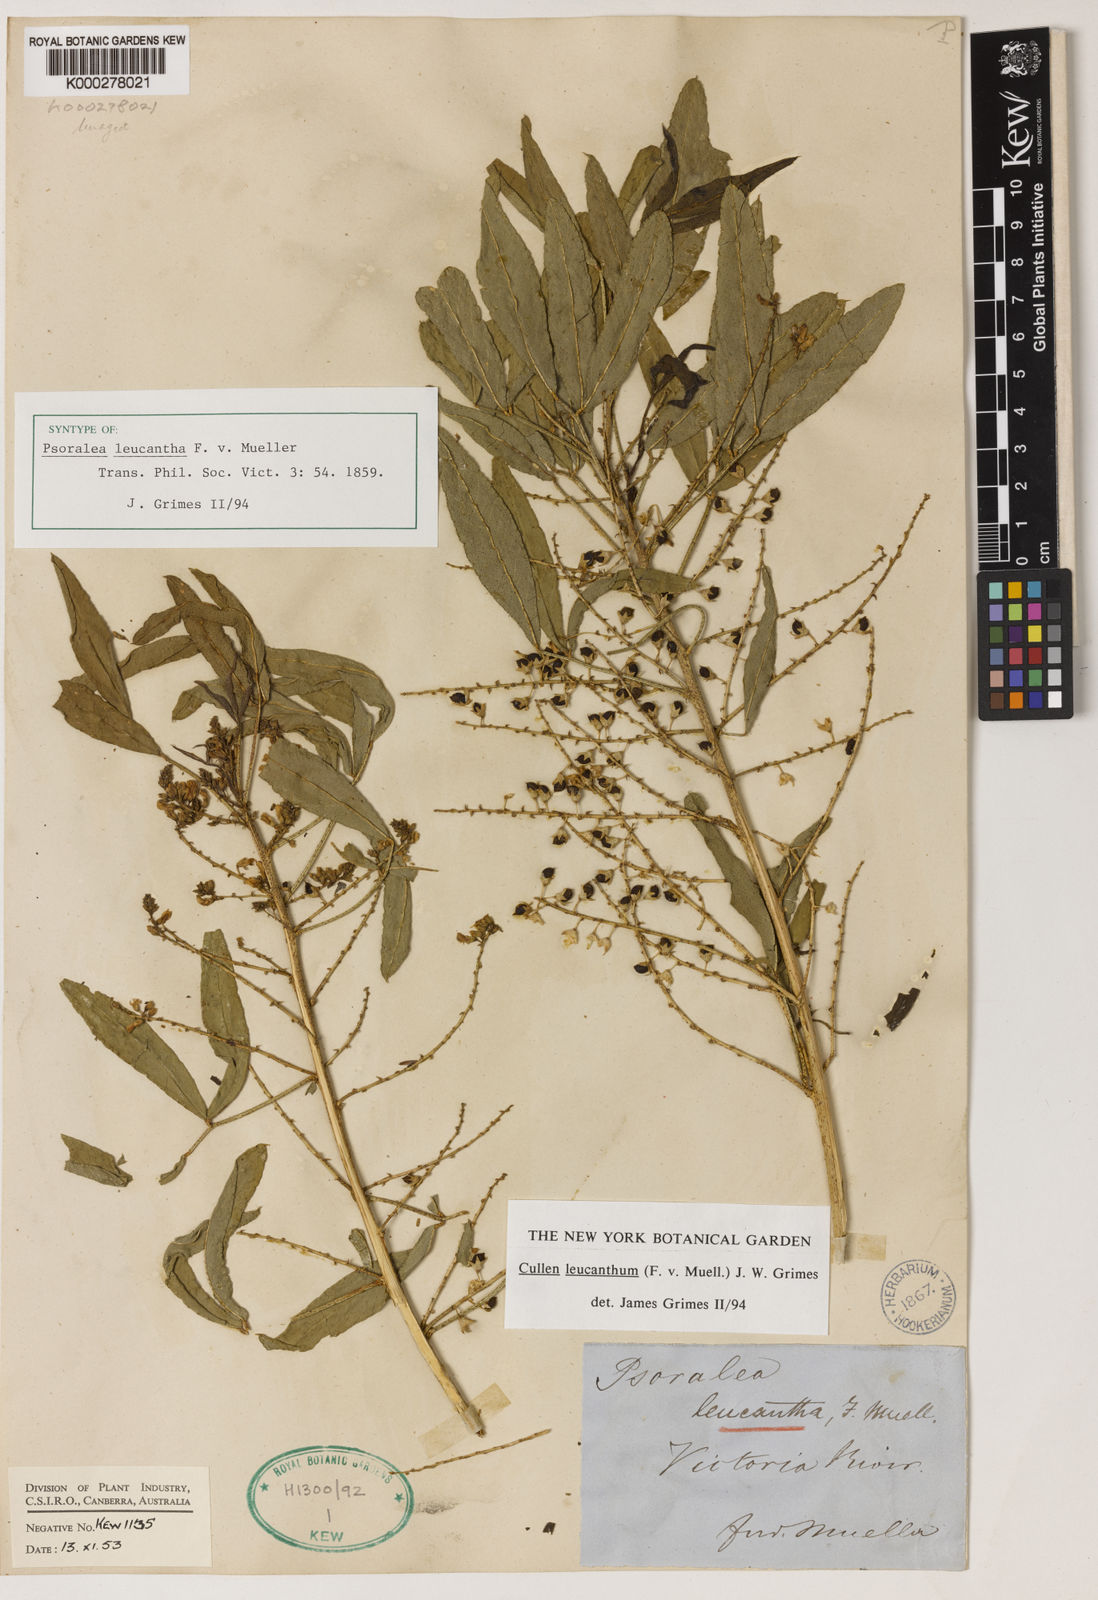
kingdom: Plantae
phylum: Tracheophyta
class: Magnoliopsida
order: Fabales
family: Fabaceae
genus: Cullen
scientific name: Cullen leucanthum
